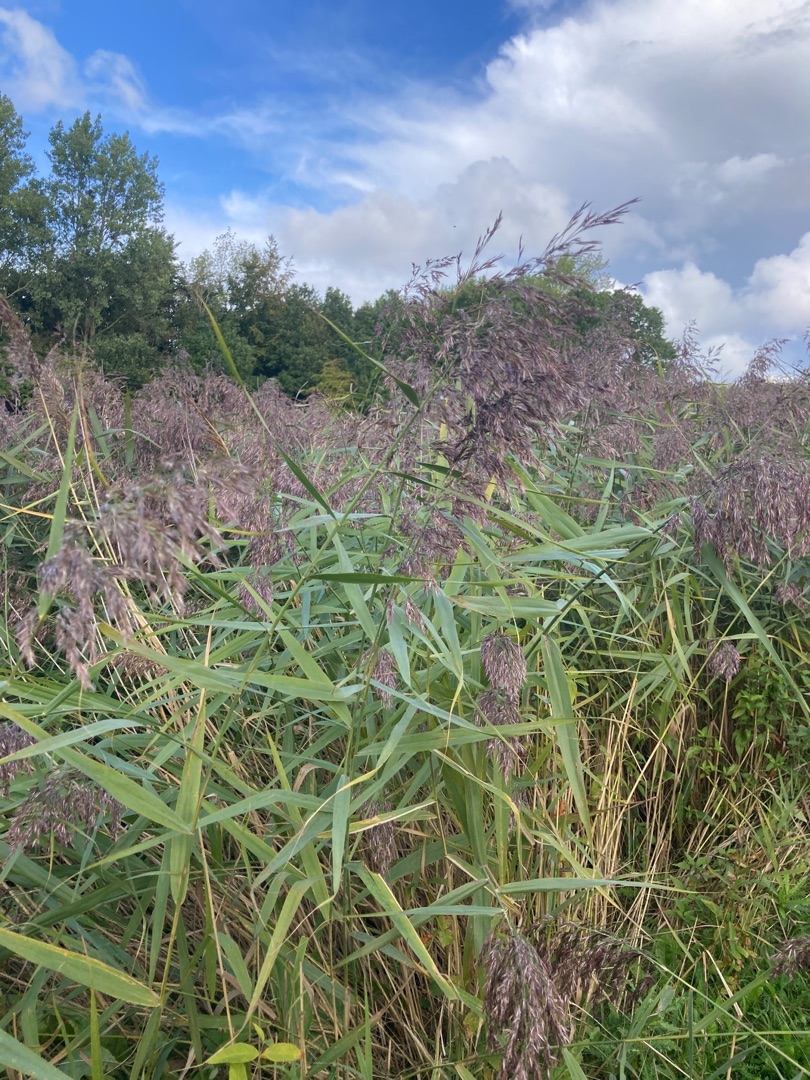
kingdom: Plantae
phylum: Tracheophyta
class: Liliopsida
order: Poales
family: Poaceae
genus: Phragmites
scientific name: Phragmites australis
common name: Tagrør
